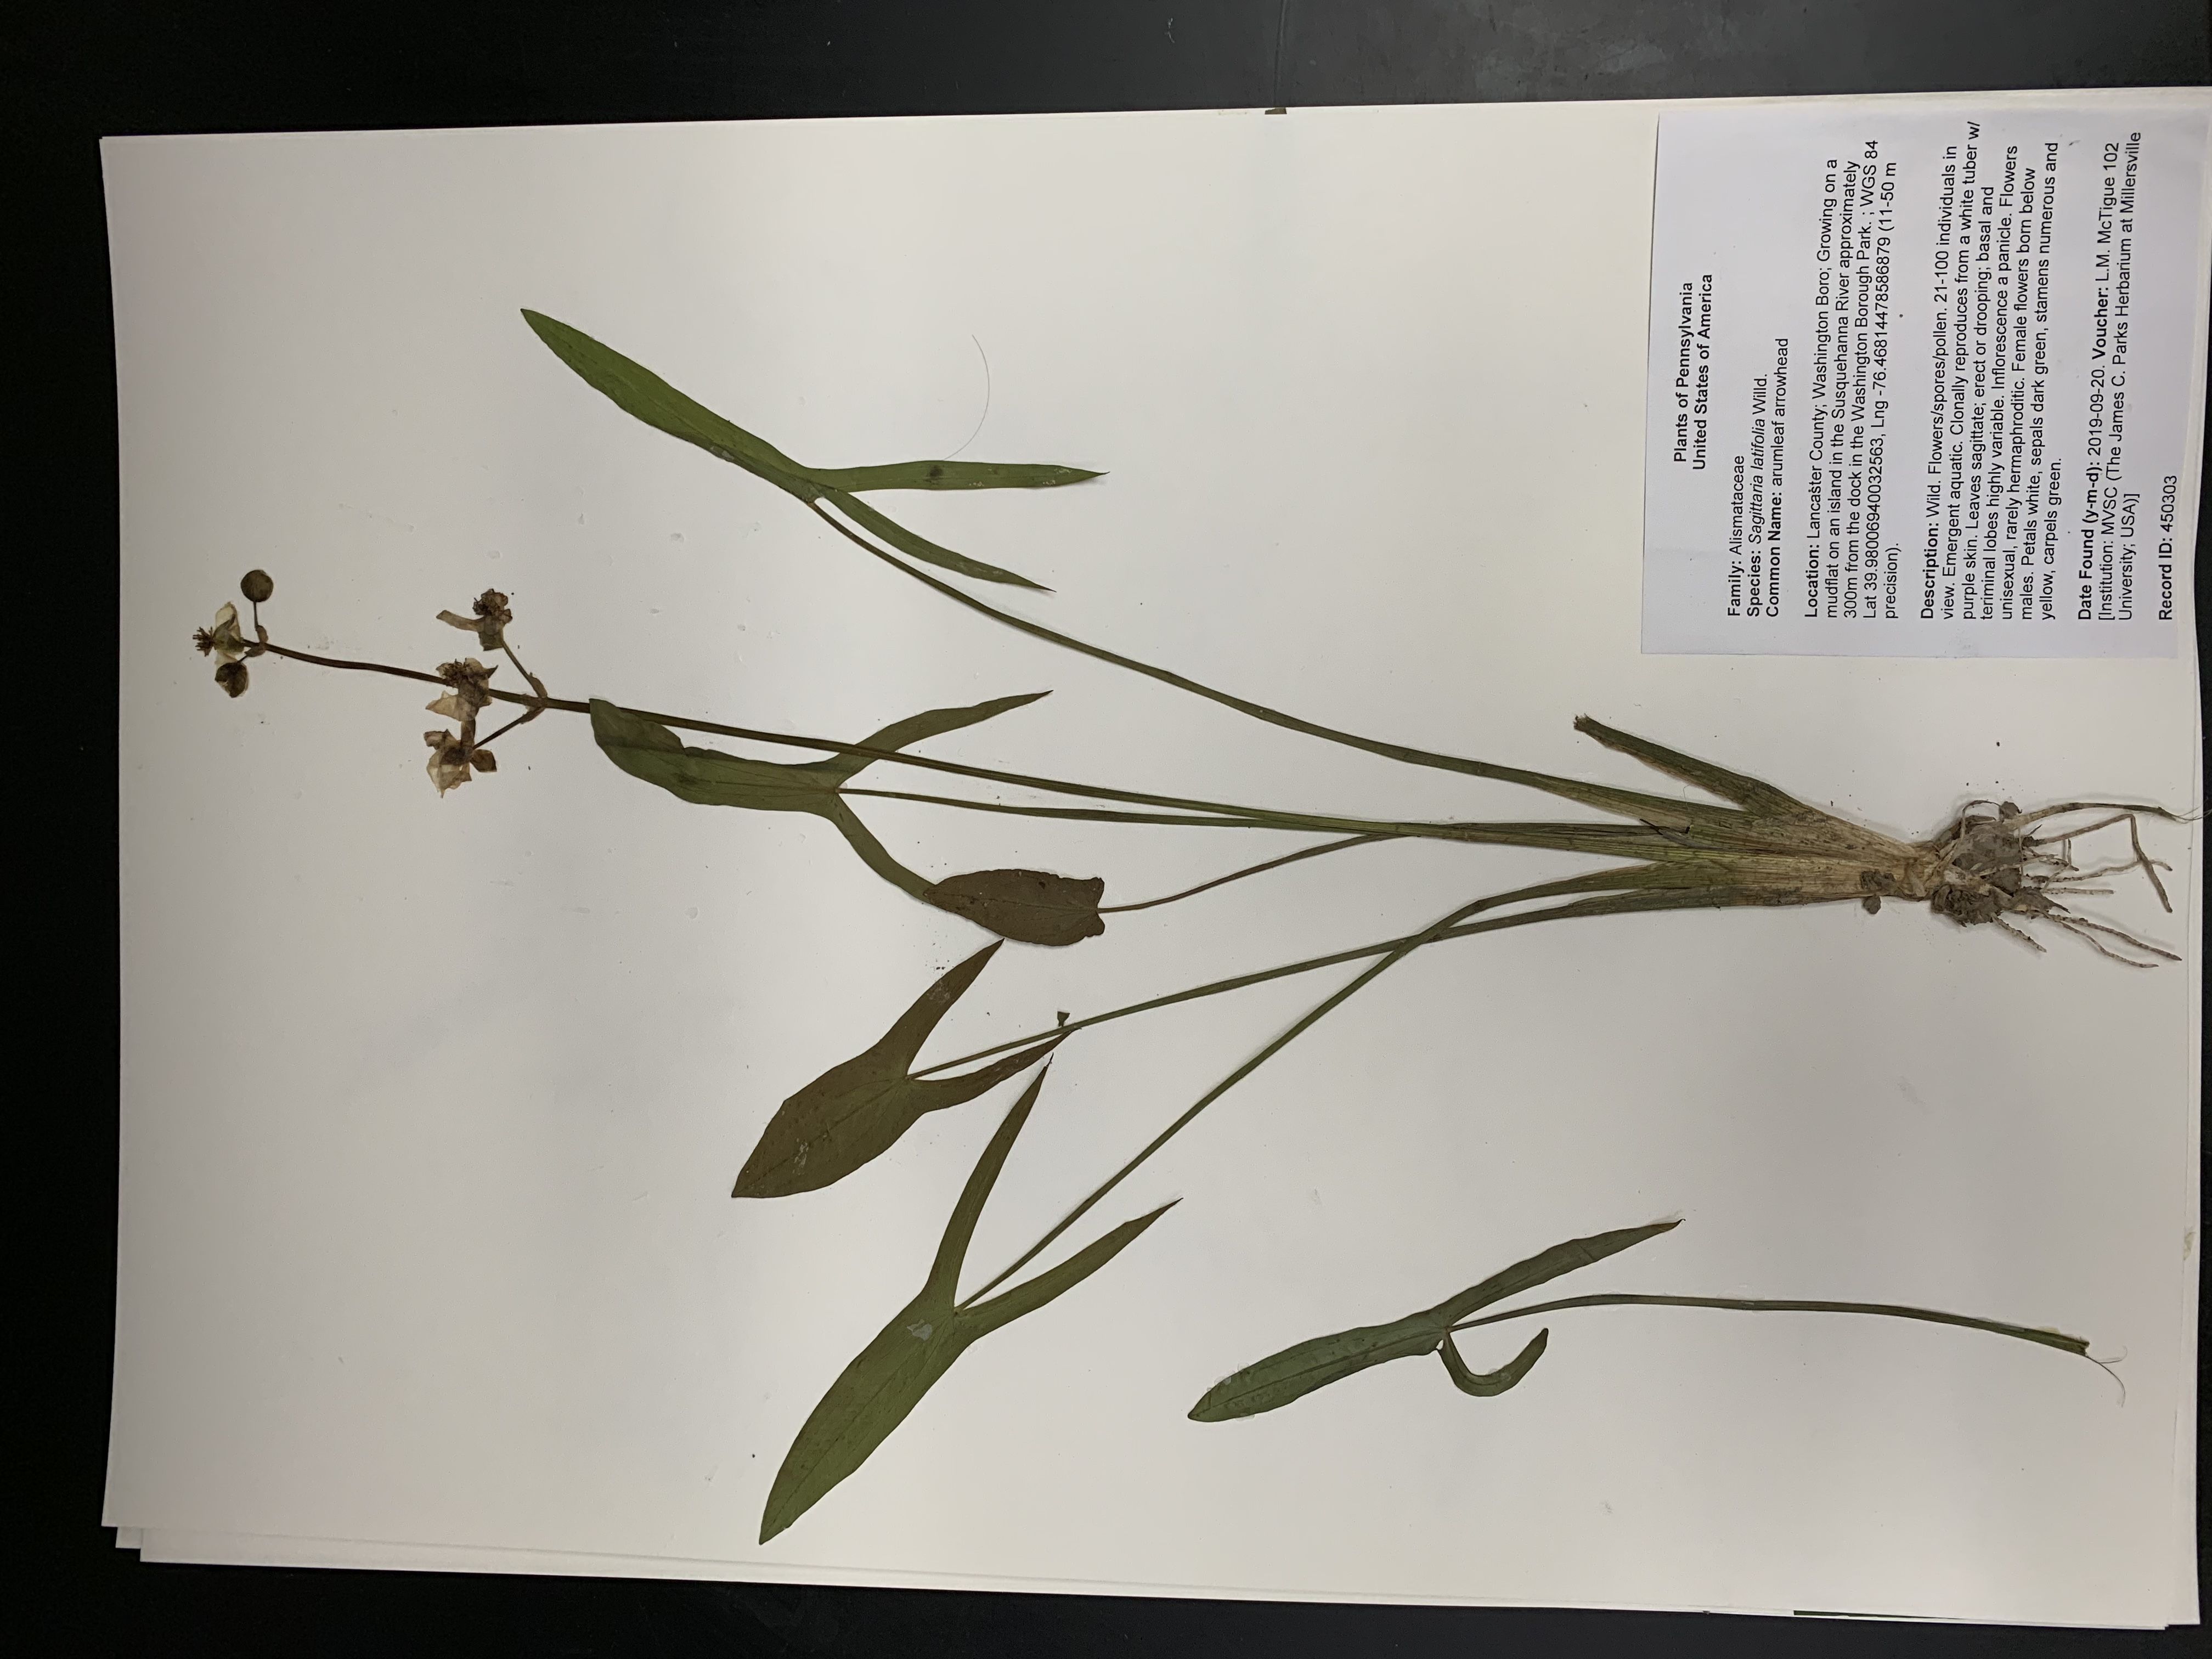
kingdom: Plantae
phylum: Tracheophyta
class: Liliopsida
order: Alismatales
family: Alismataceae
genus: Sagittaria
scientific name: Sagittaria latifolia
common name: arumleaf arrowhead
